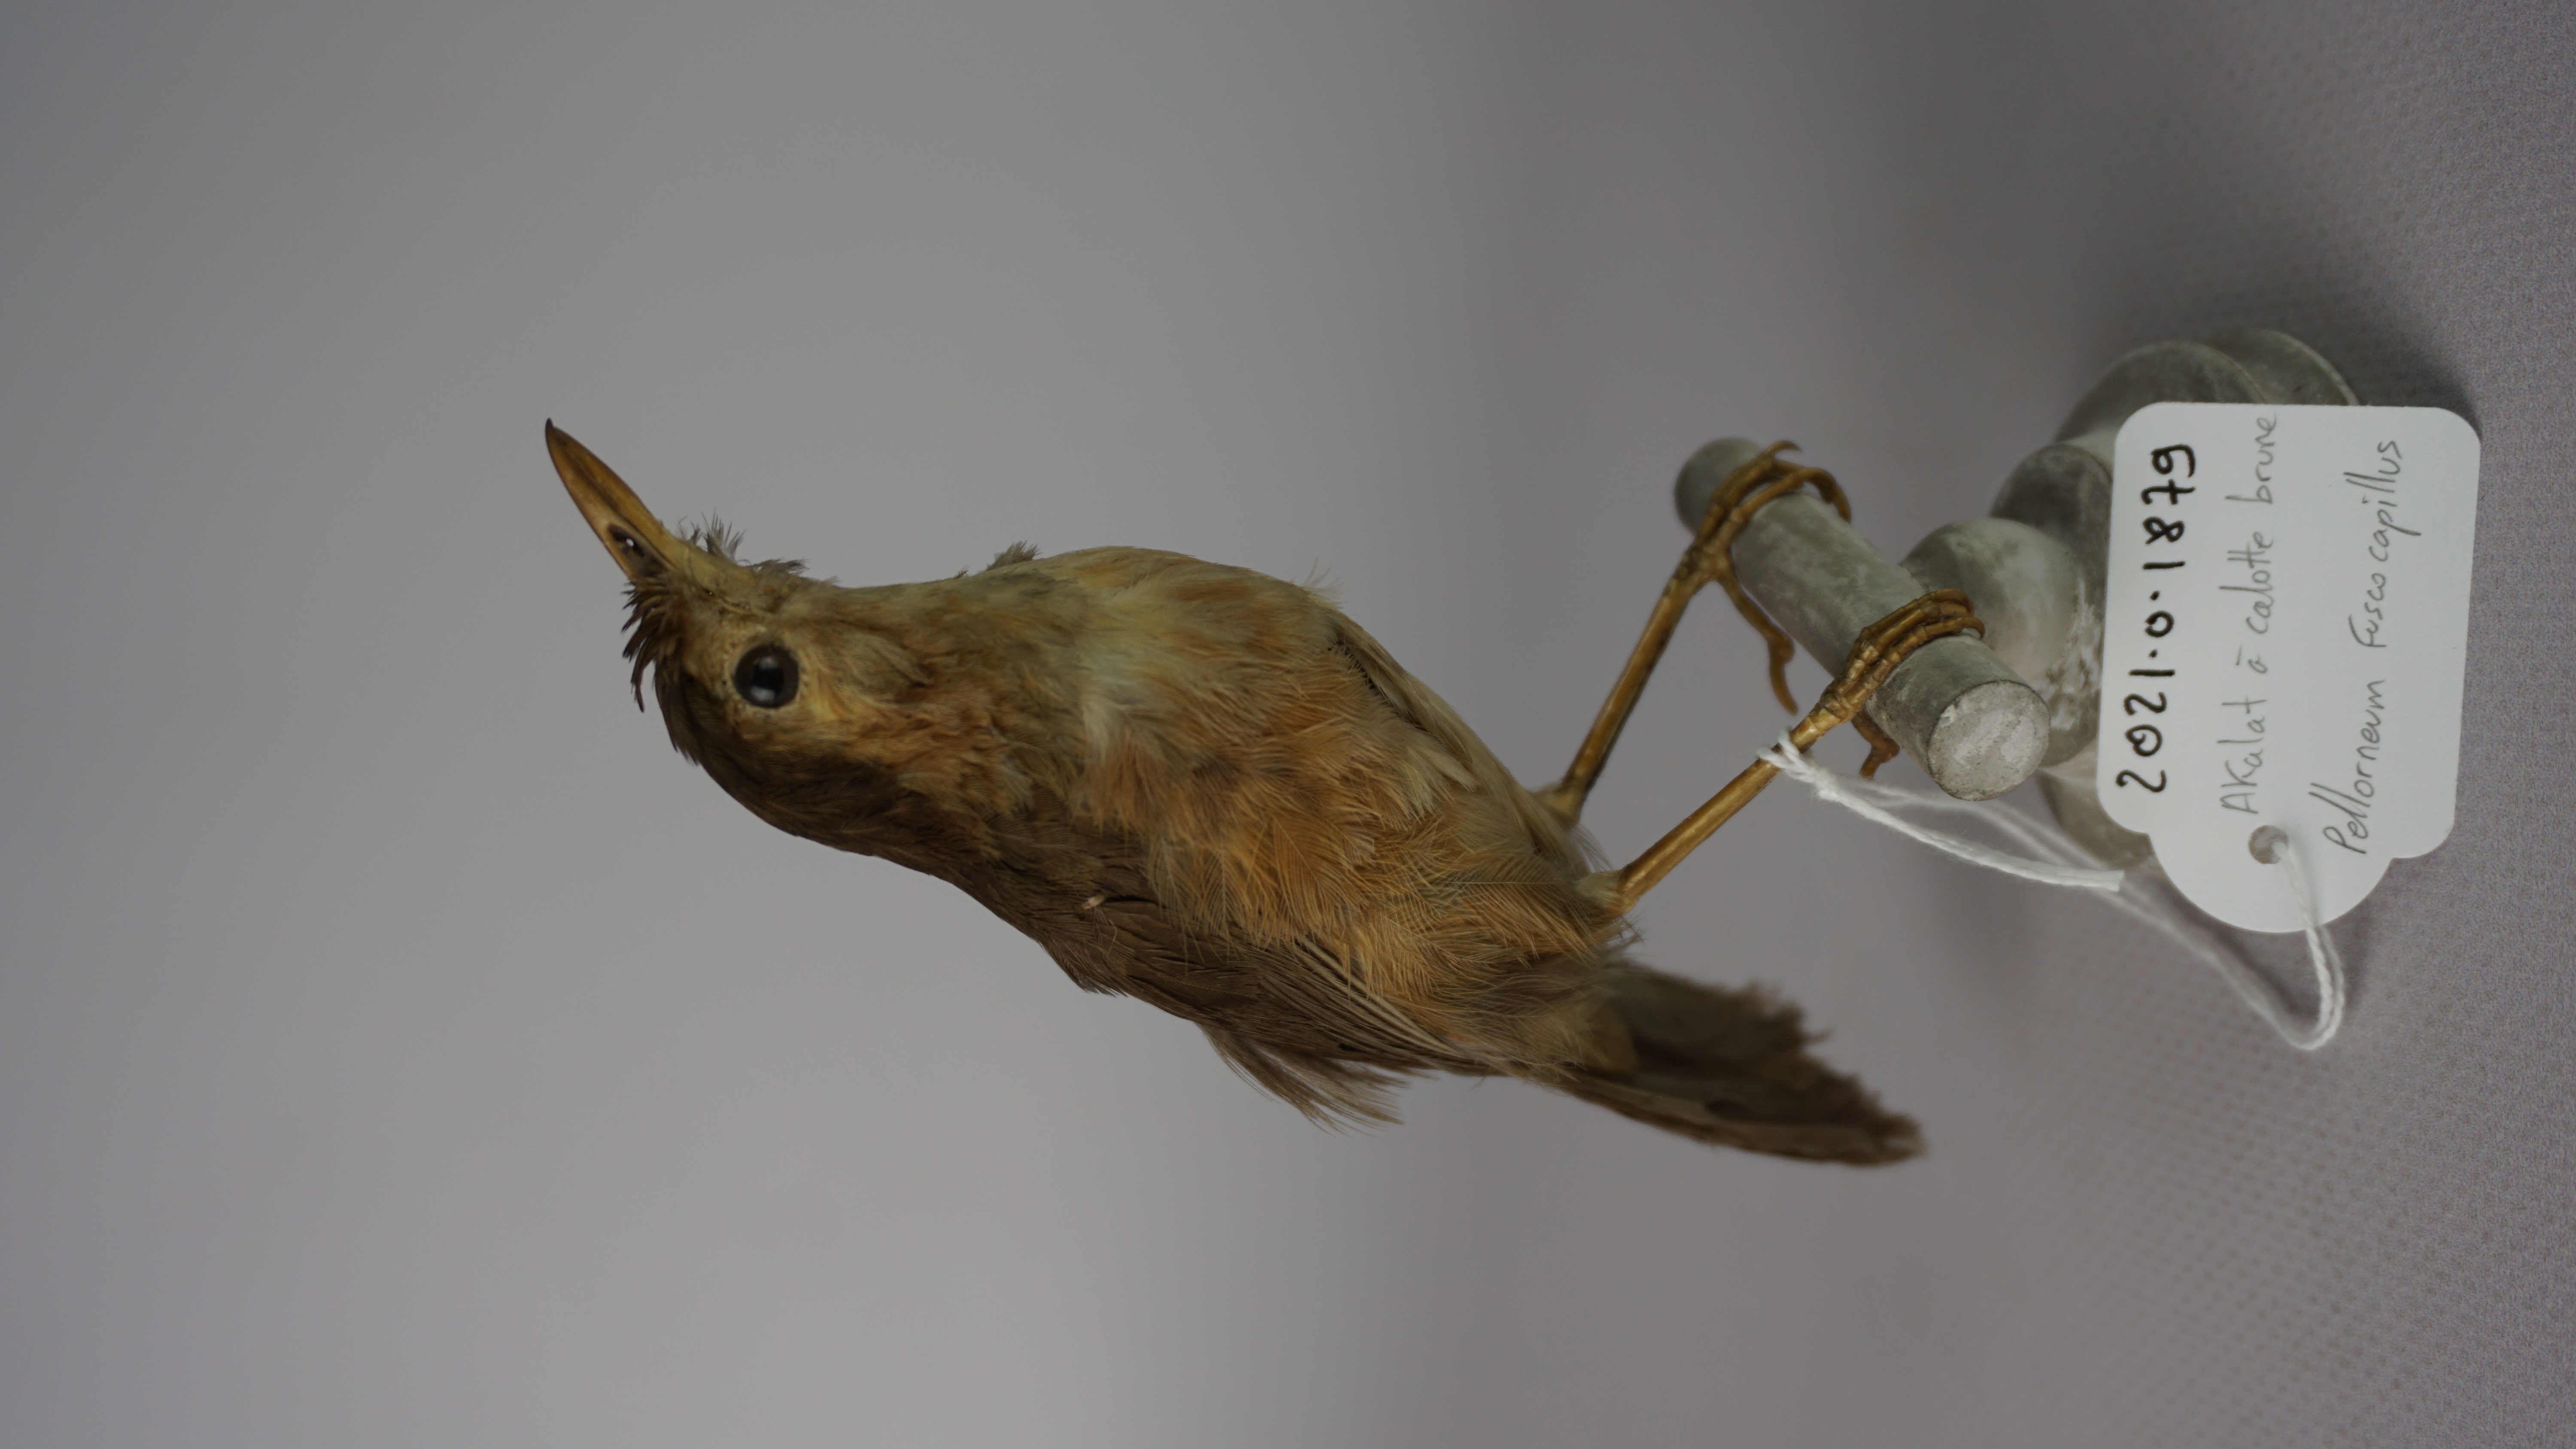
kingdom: Animalia
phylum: Chordata
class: Aves
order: Passeriformes
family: Pellorneidae
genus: Pellorneum
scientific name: Pellorneum fuscocapillus
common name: Brown-capped babbler
